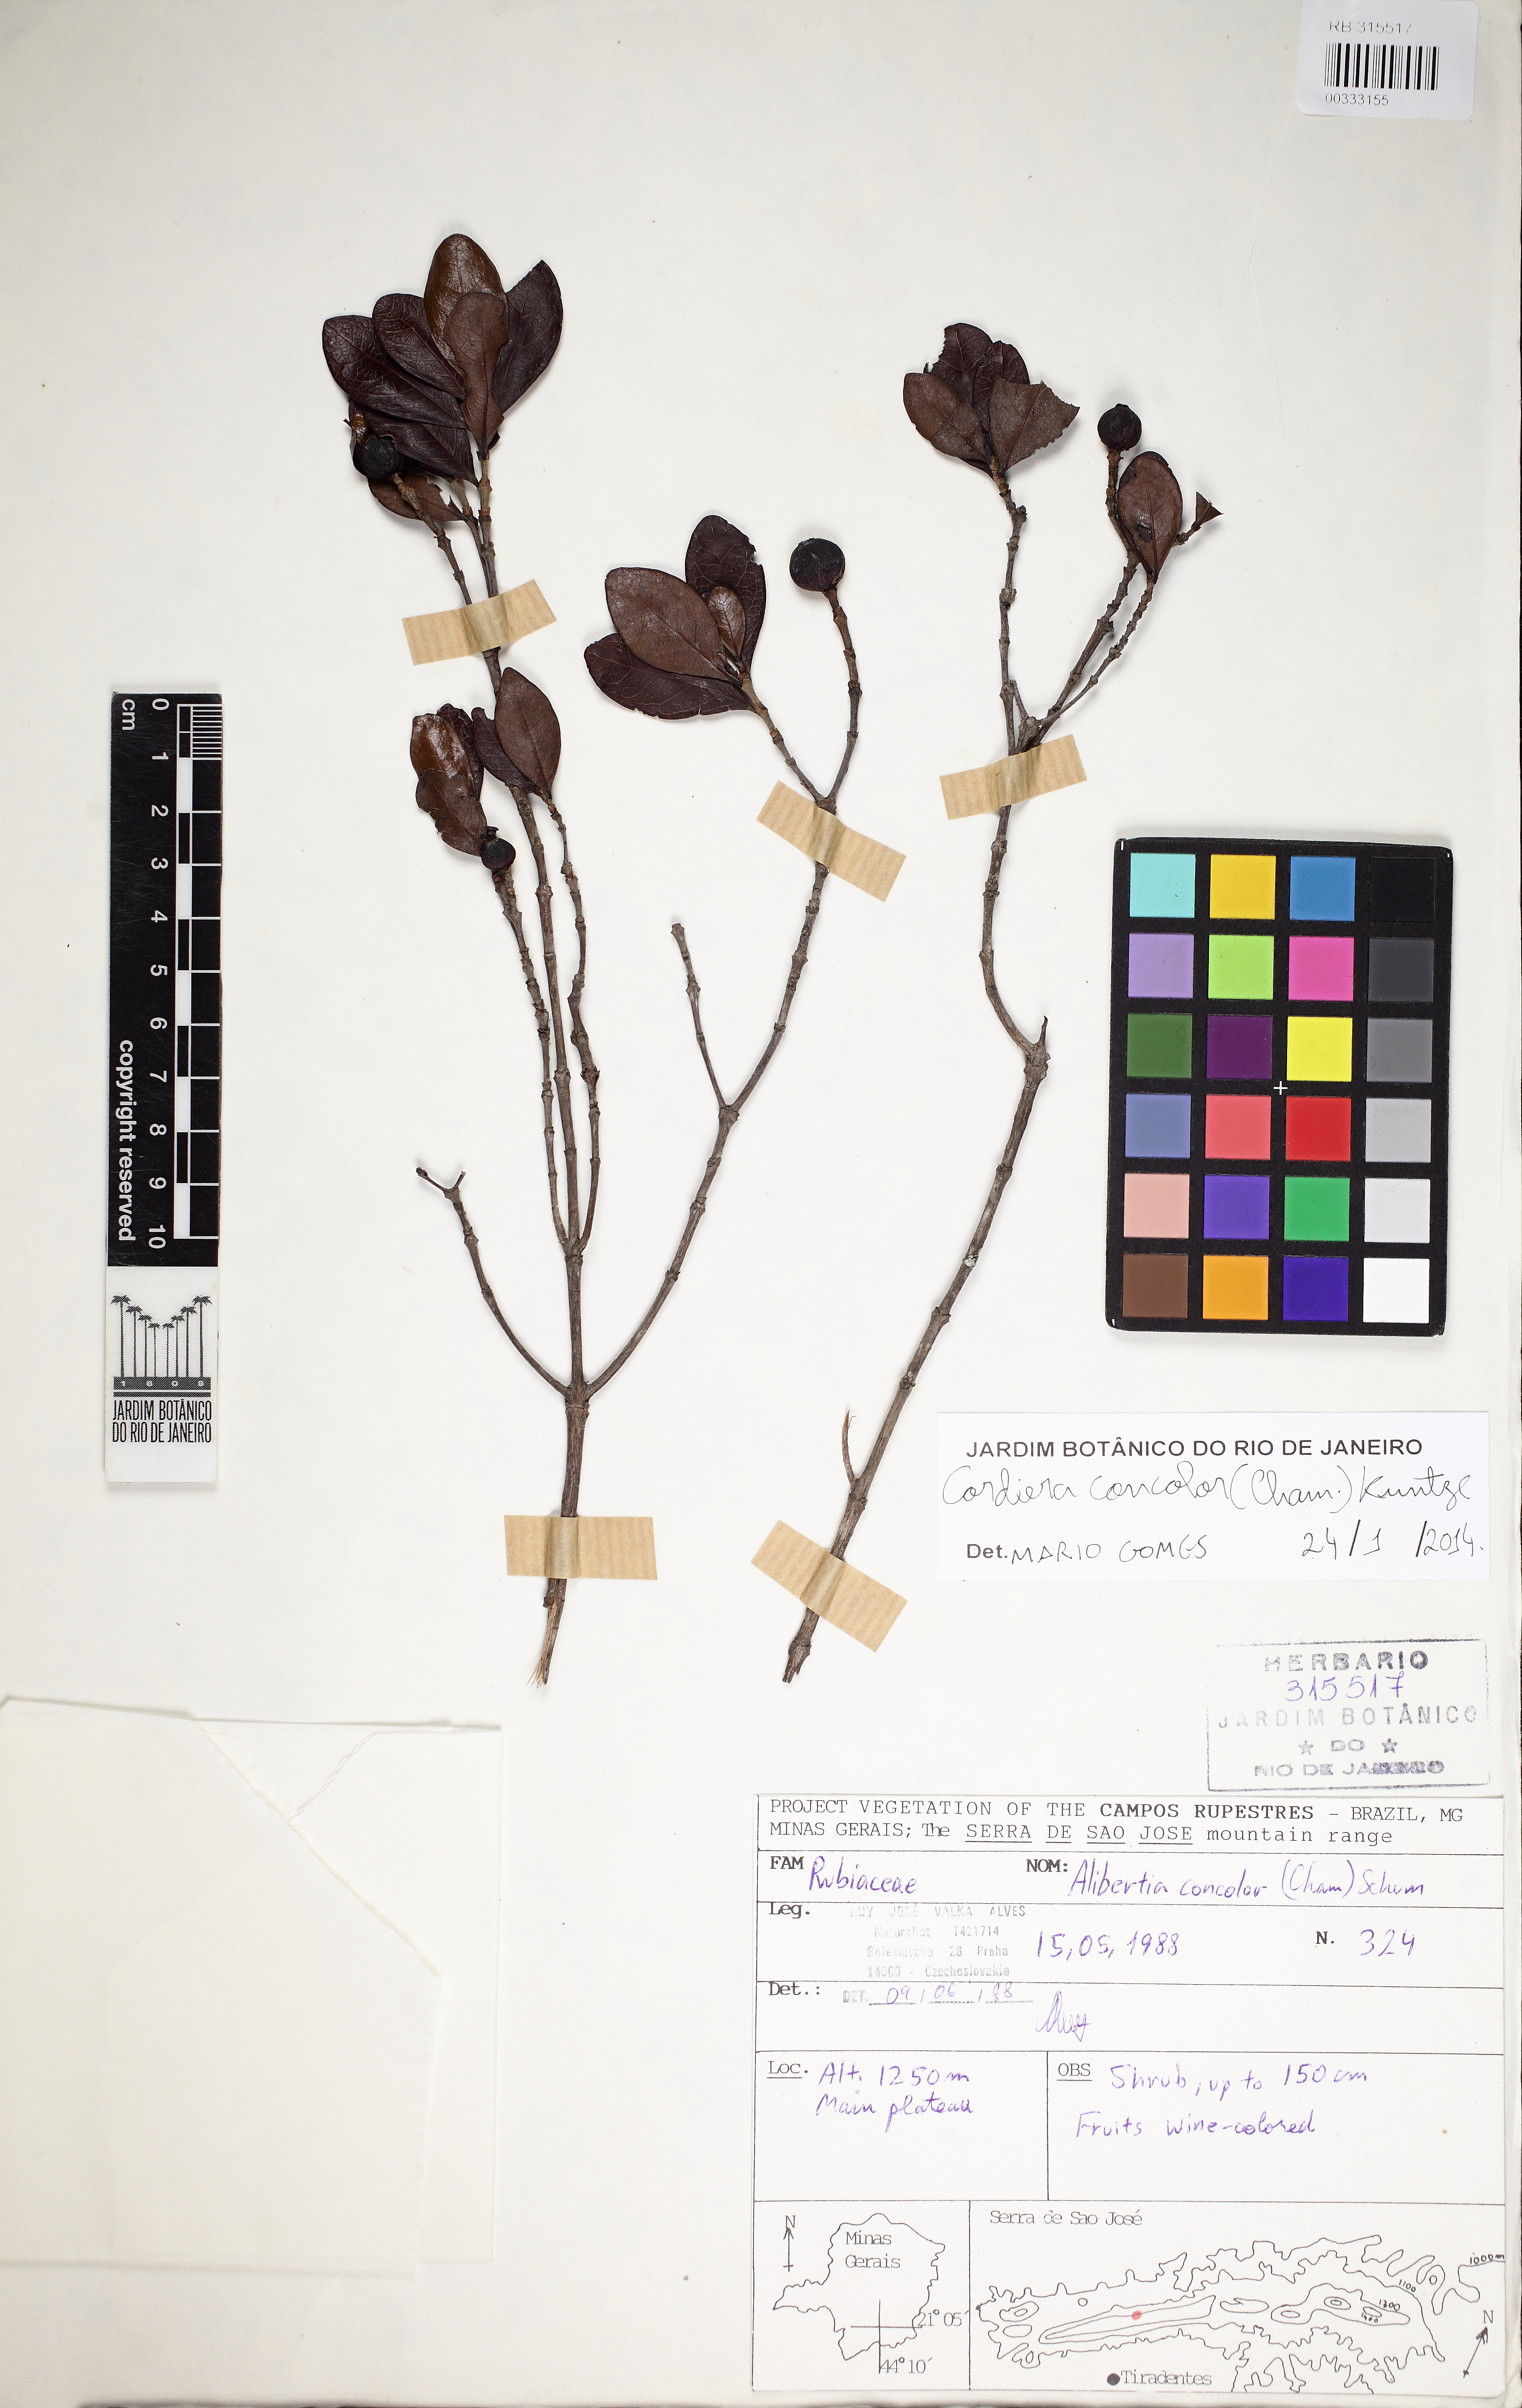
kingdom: Plantae
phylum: Tracheophyta
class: Magnoliopsida
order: Gentianales
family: Rubiaceae
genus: Cordiera
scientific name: Cordiera elliptica
